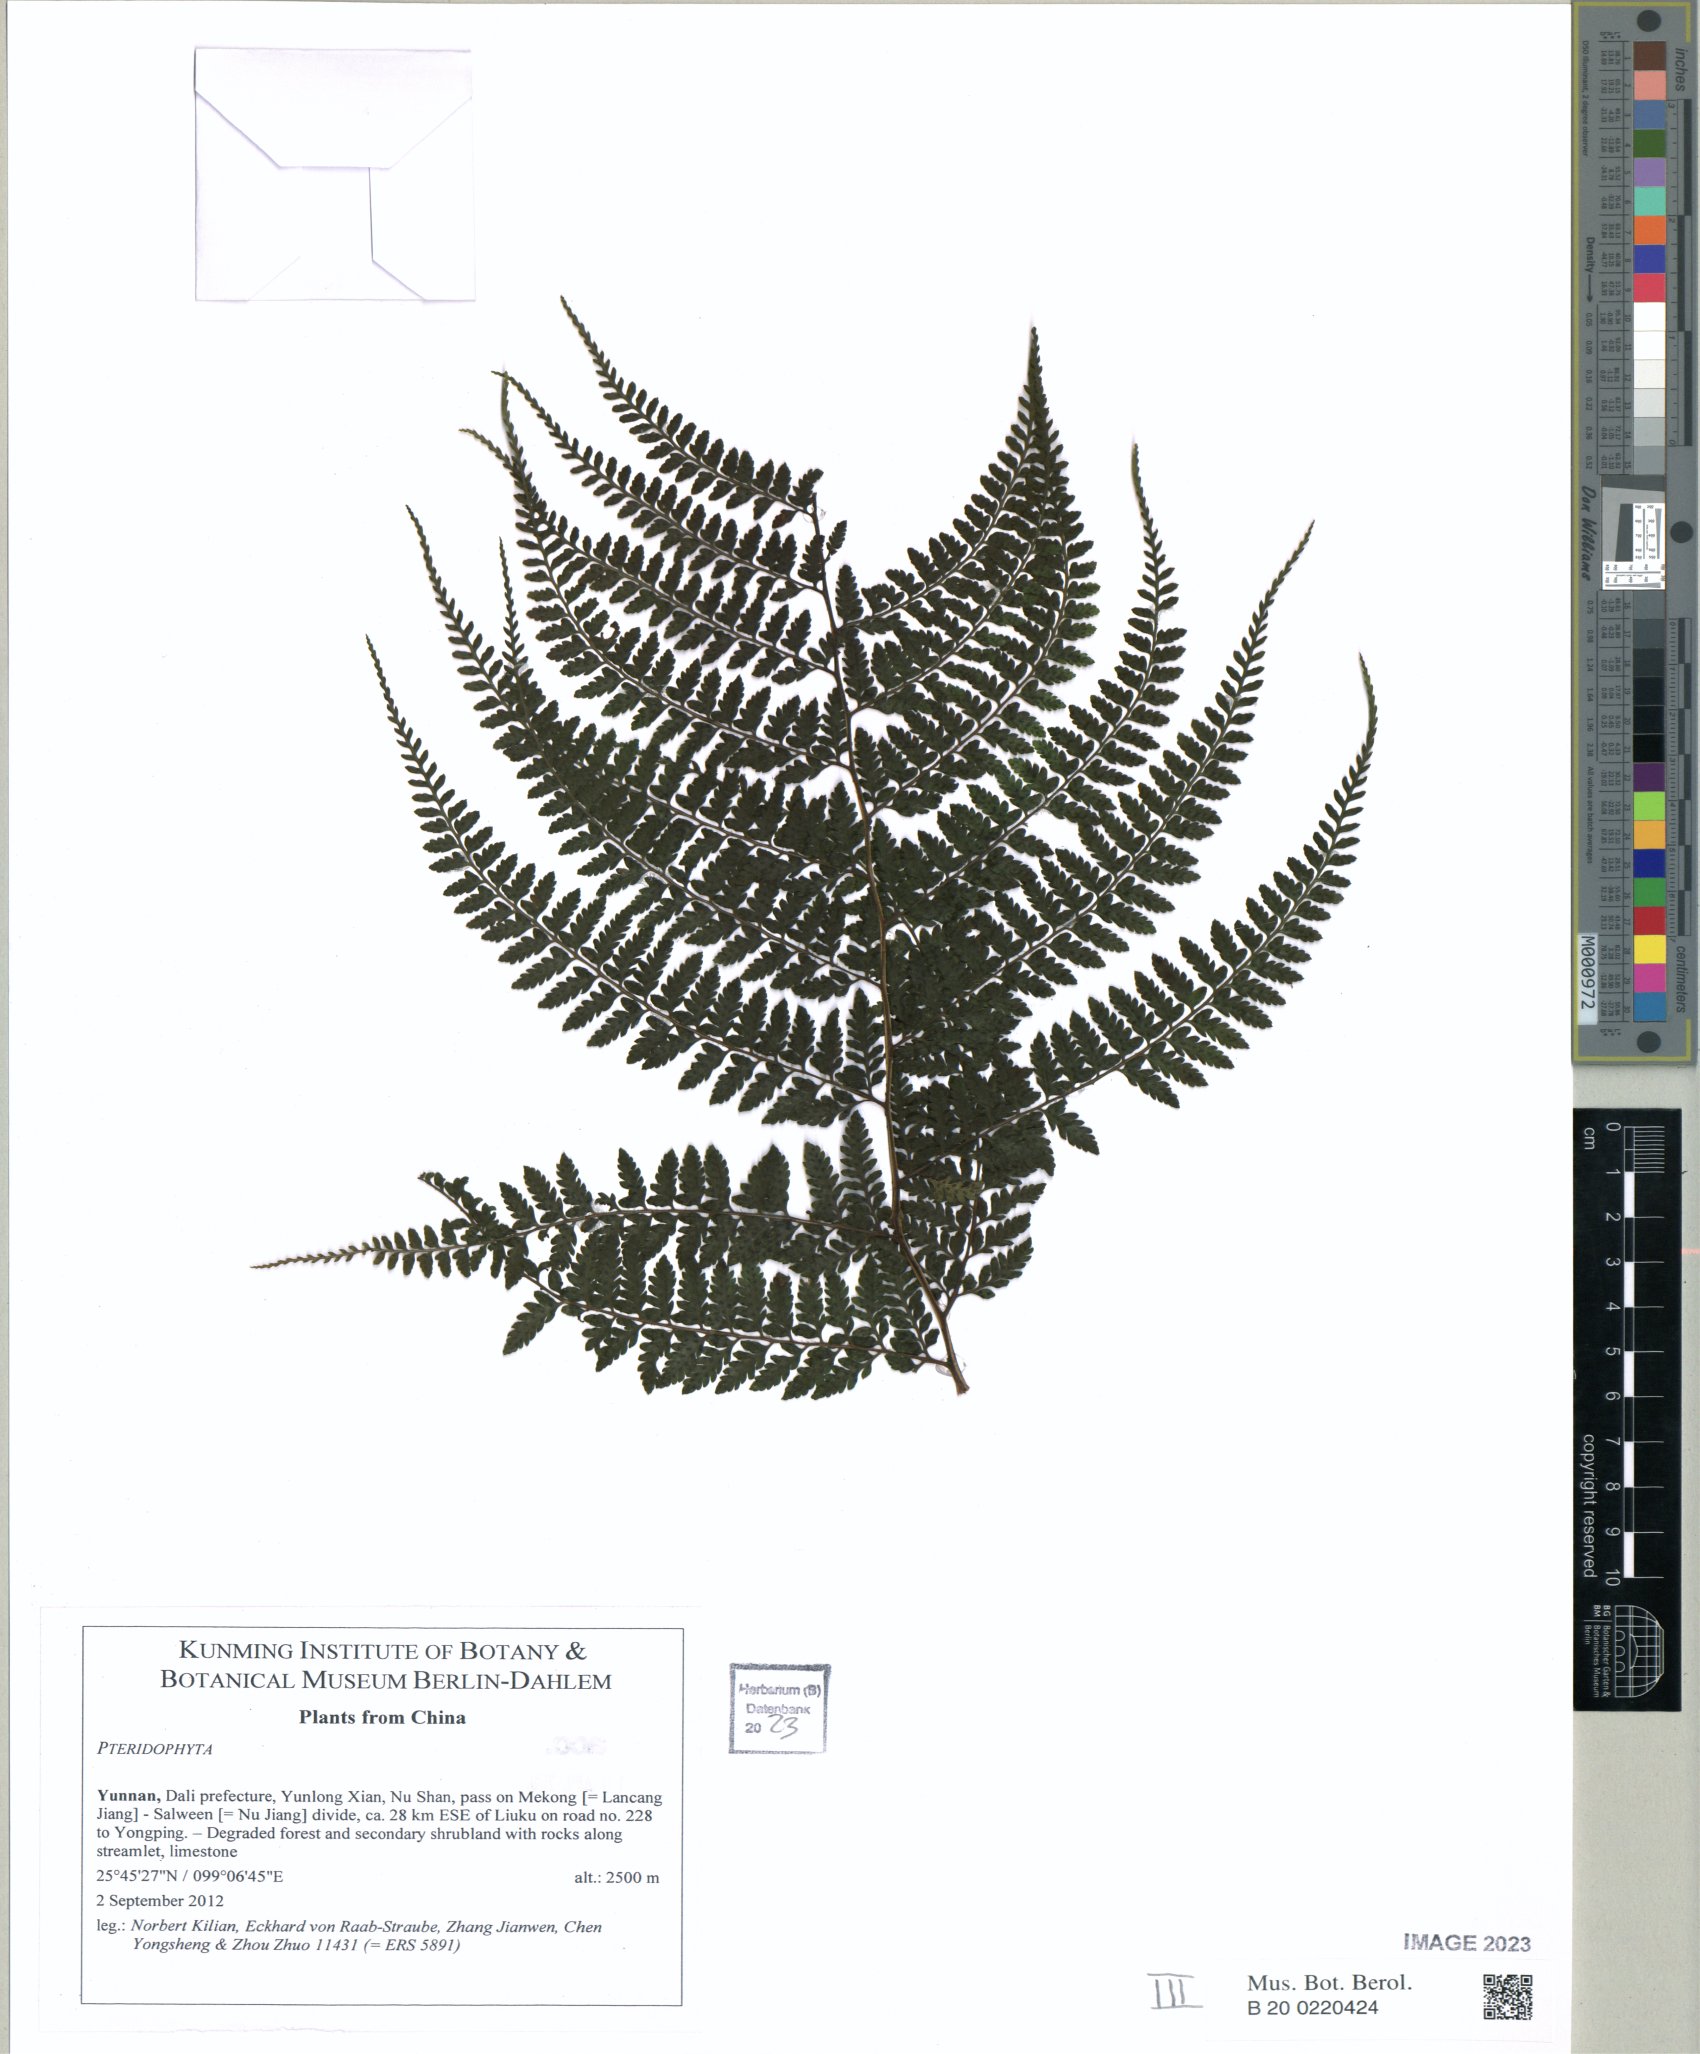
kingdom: Plantae
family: Pteridophyta
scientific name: Pteridophyta
